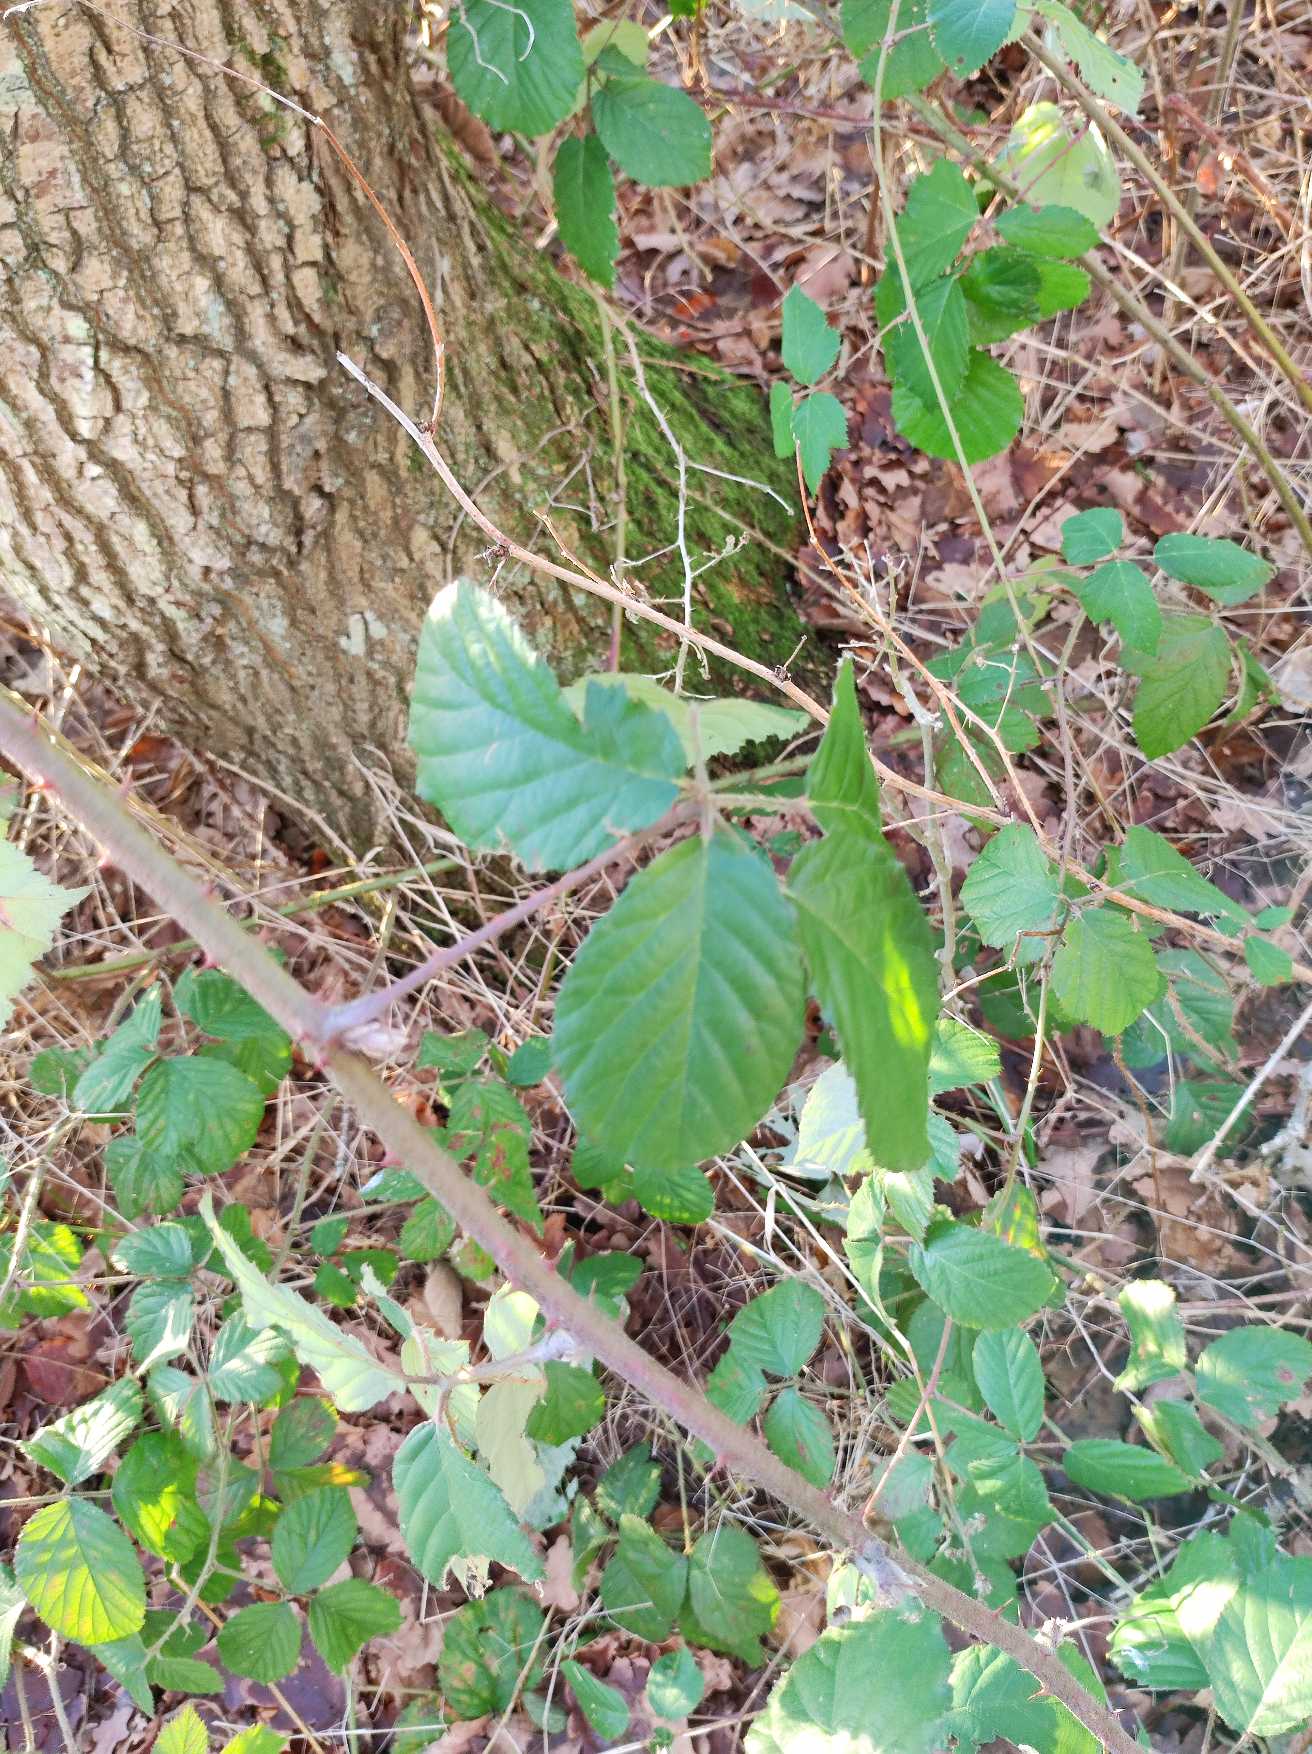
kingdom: Plantae
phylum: Tracheophyta
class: Magnoliopsida
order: Rosales
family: Rosaceae
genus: Rubus
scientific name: Rubus
